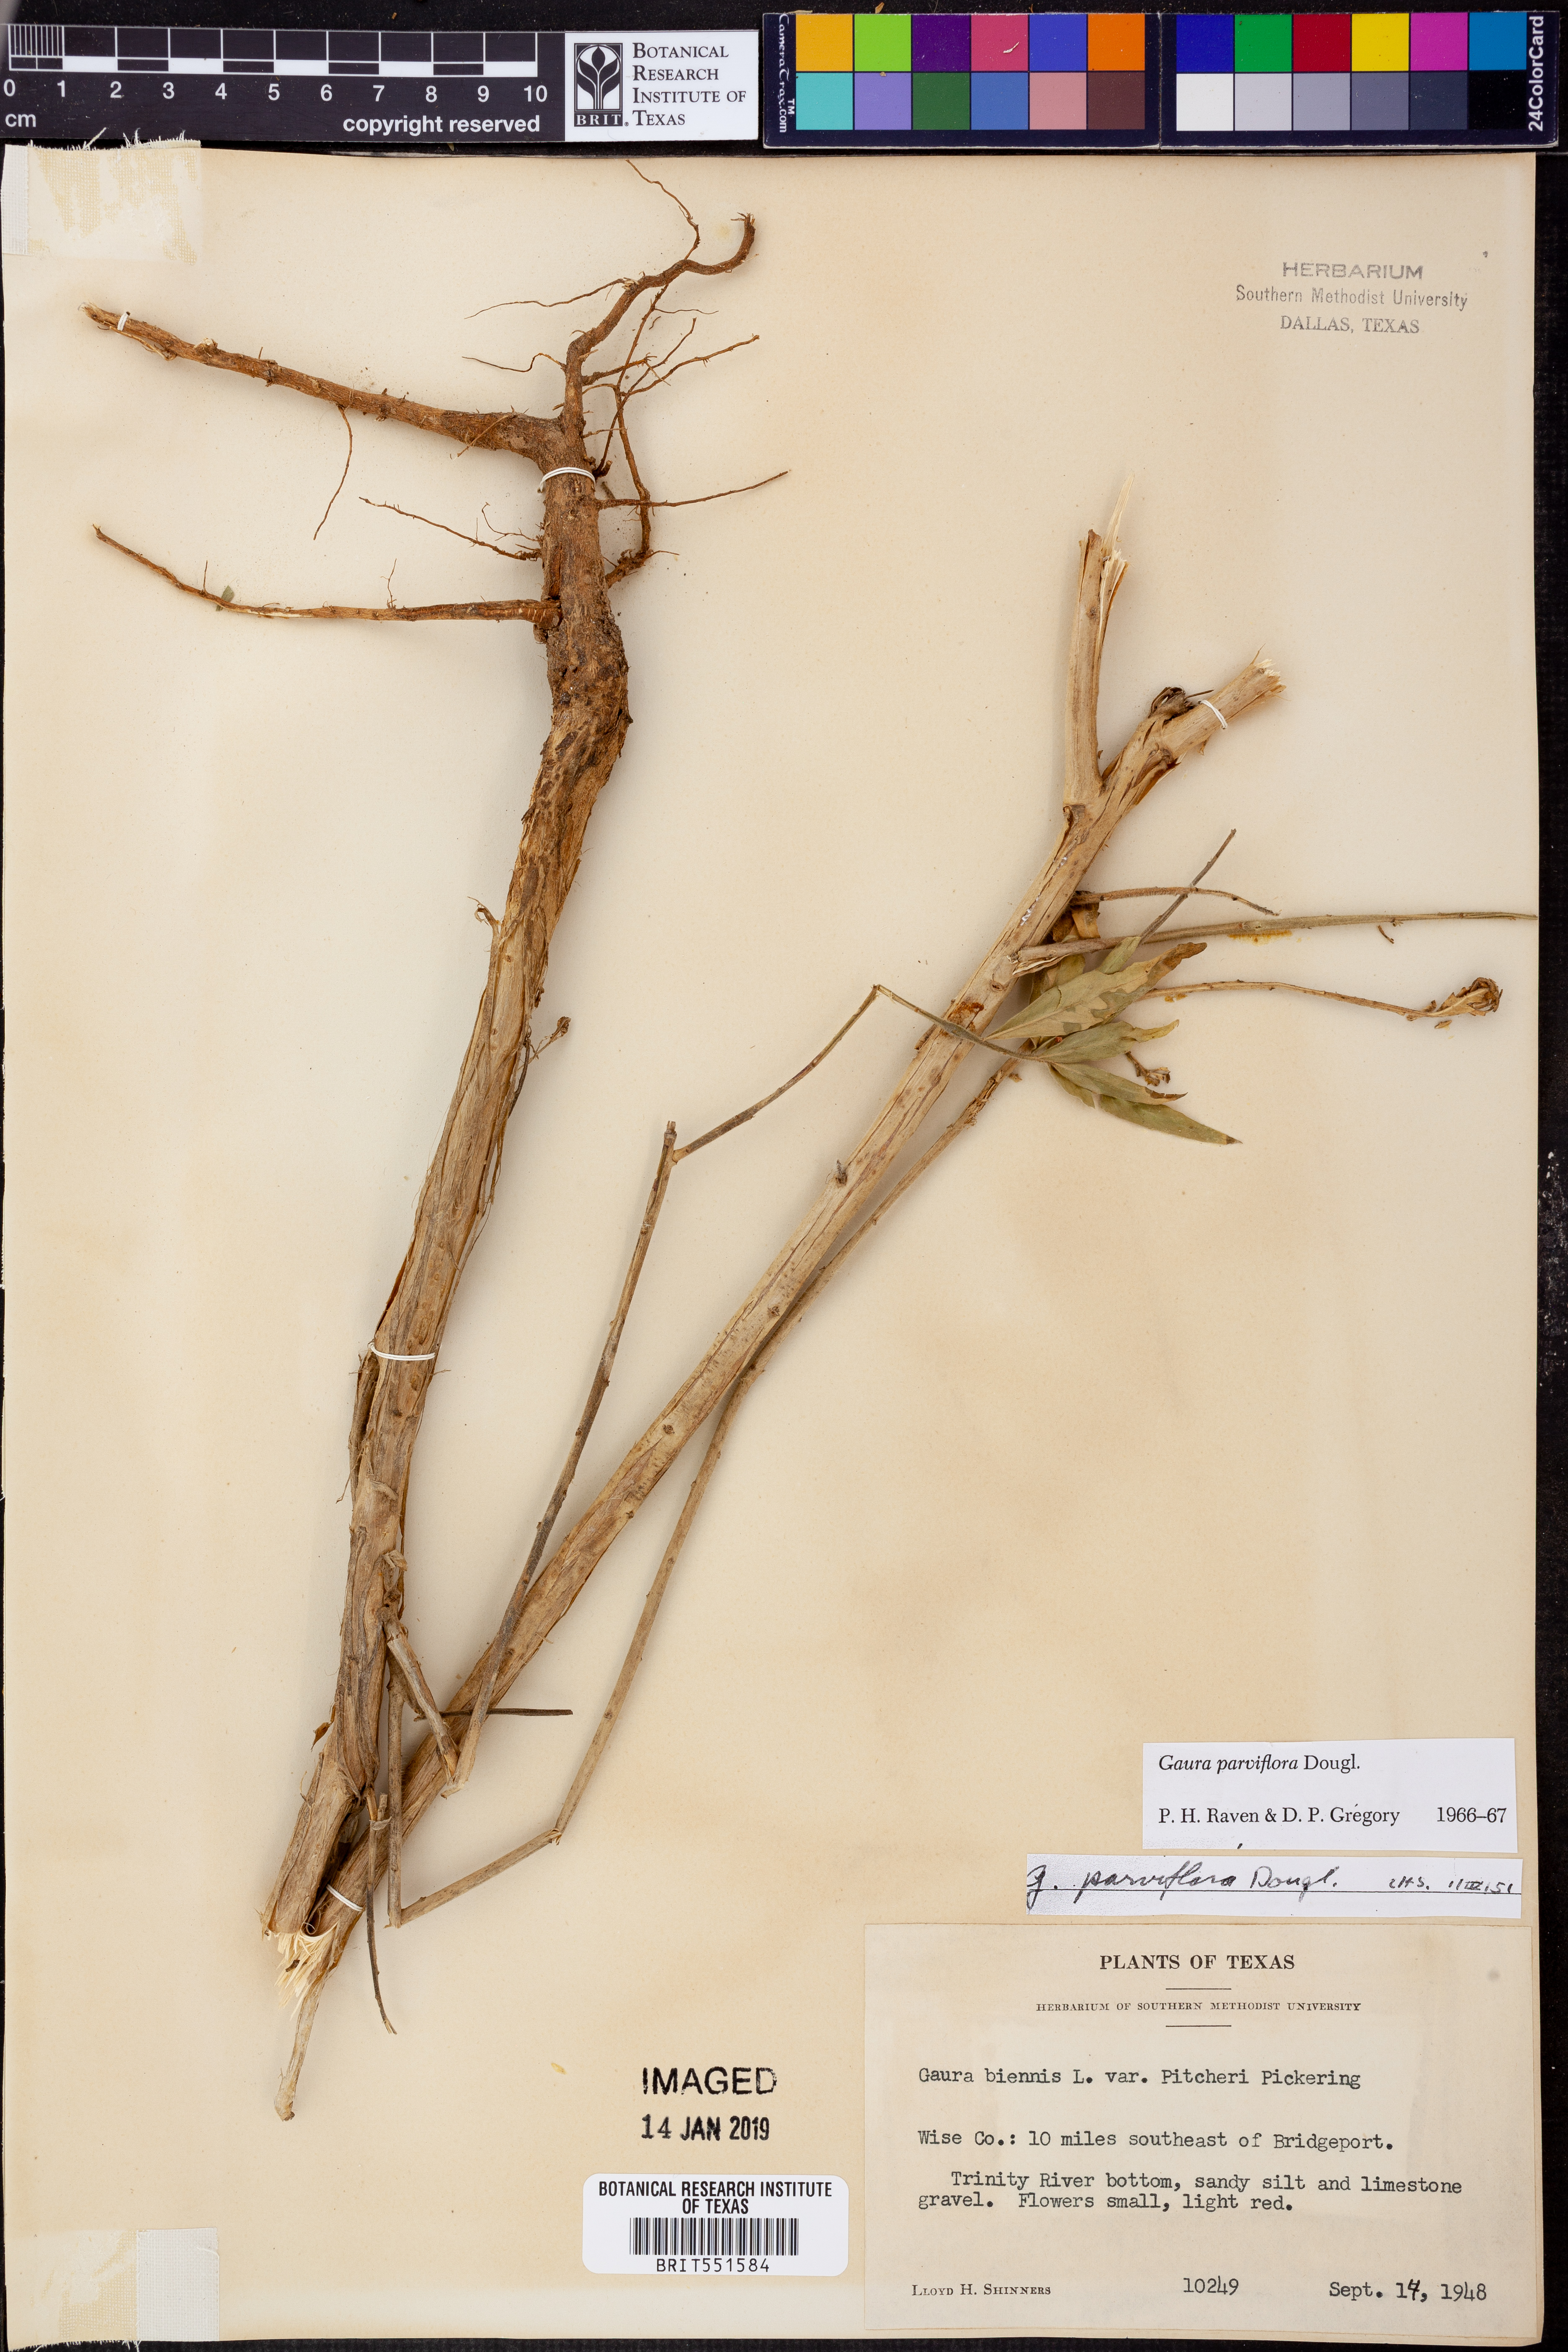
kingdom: Plantae
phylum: Tracheophyta
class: Magnoliopsida
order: Myrtales
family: Onagraceae
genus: Oenothera
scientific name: Oenothera curtiflora
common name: Velvetweed
